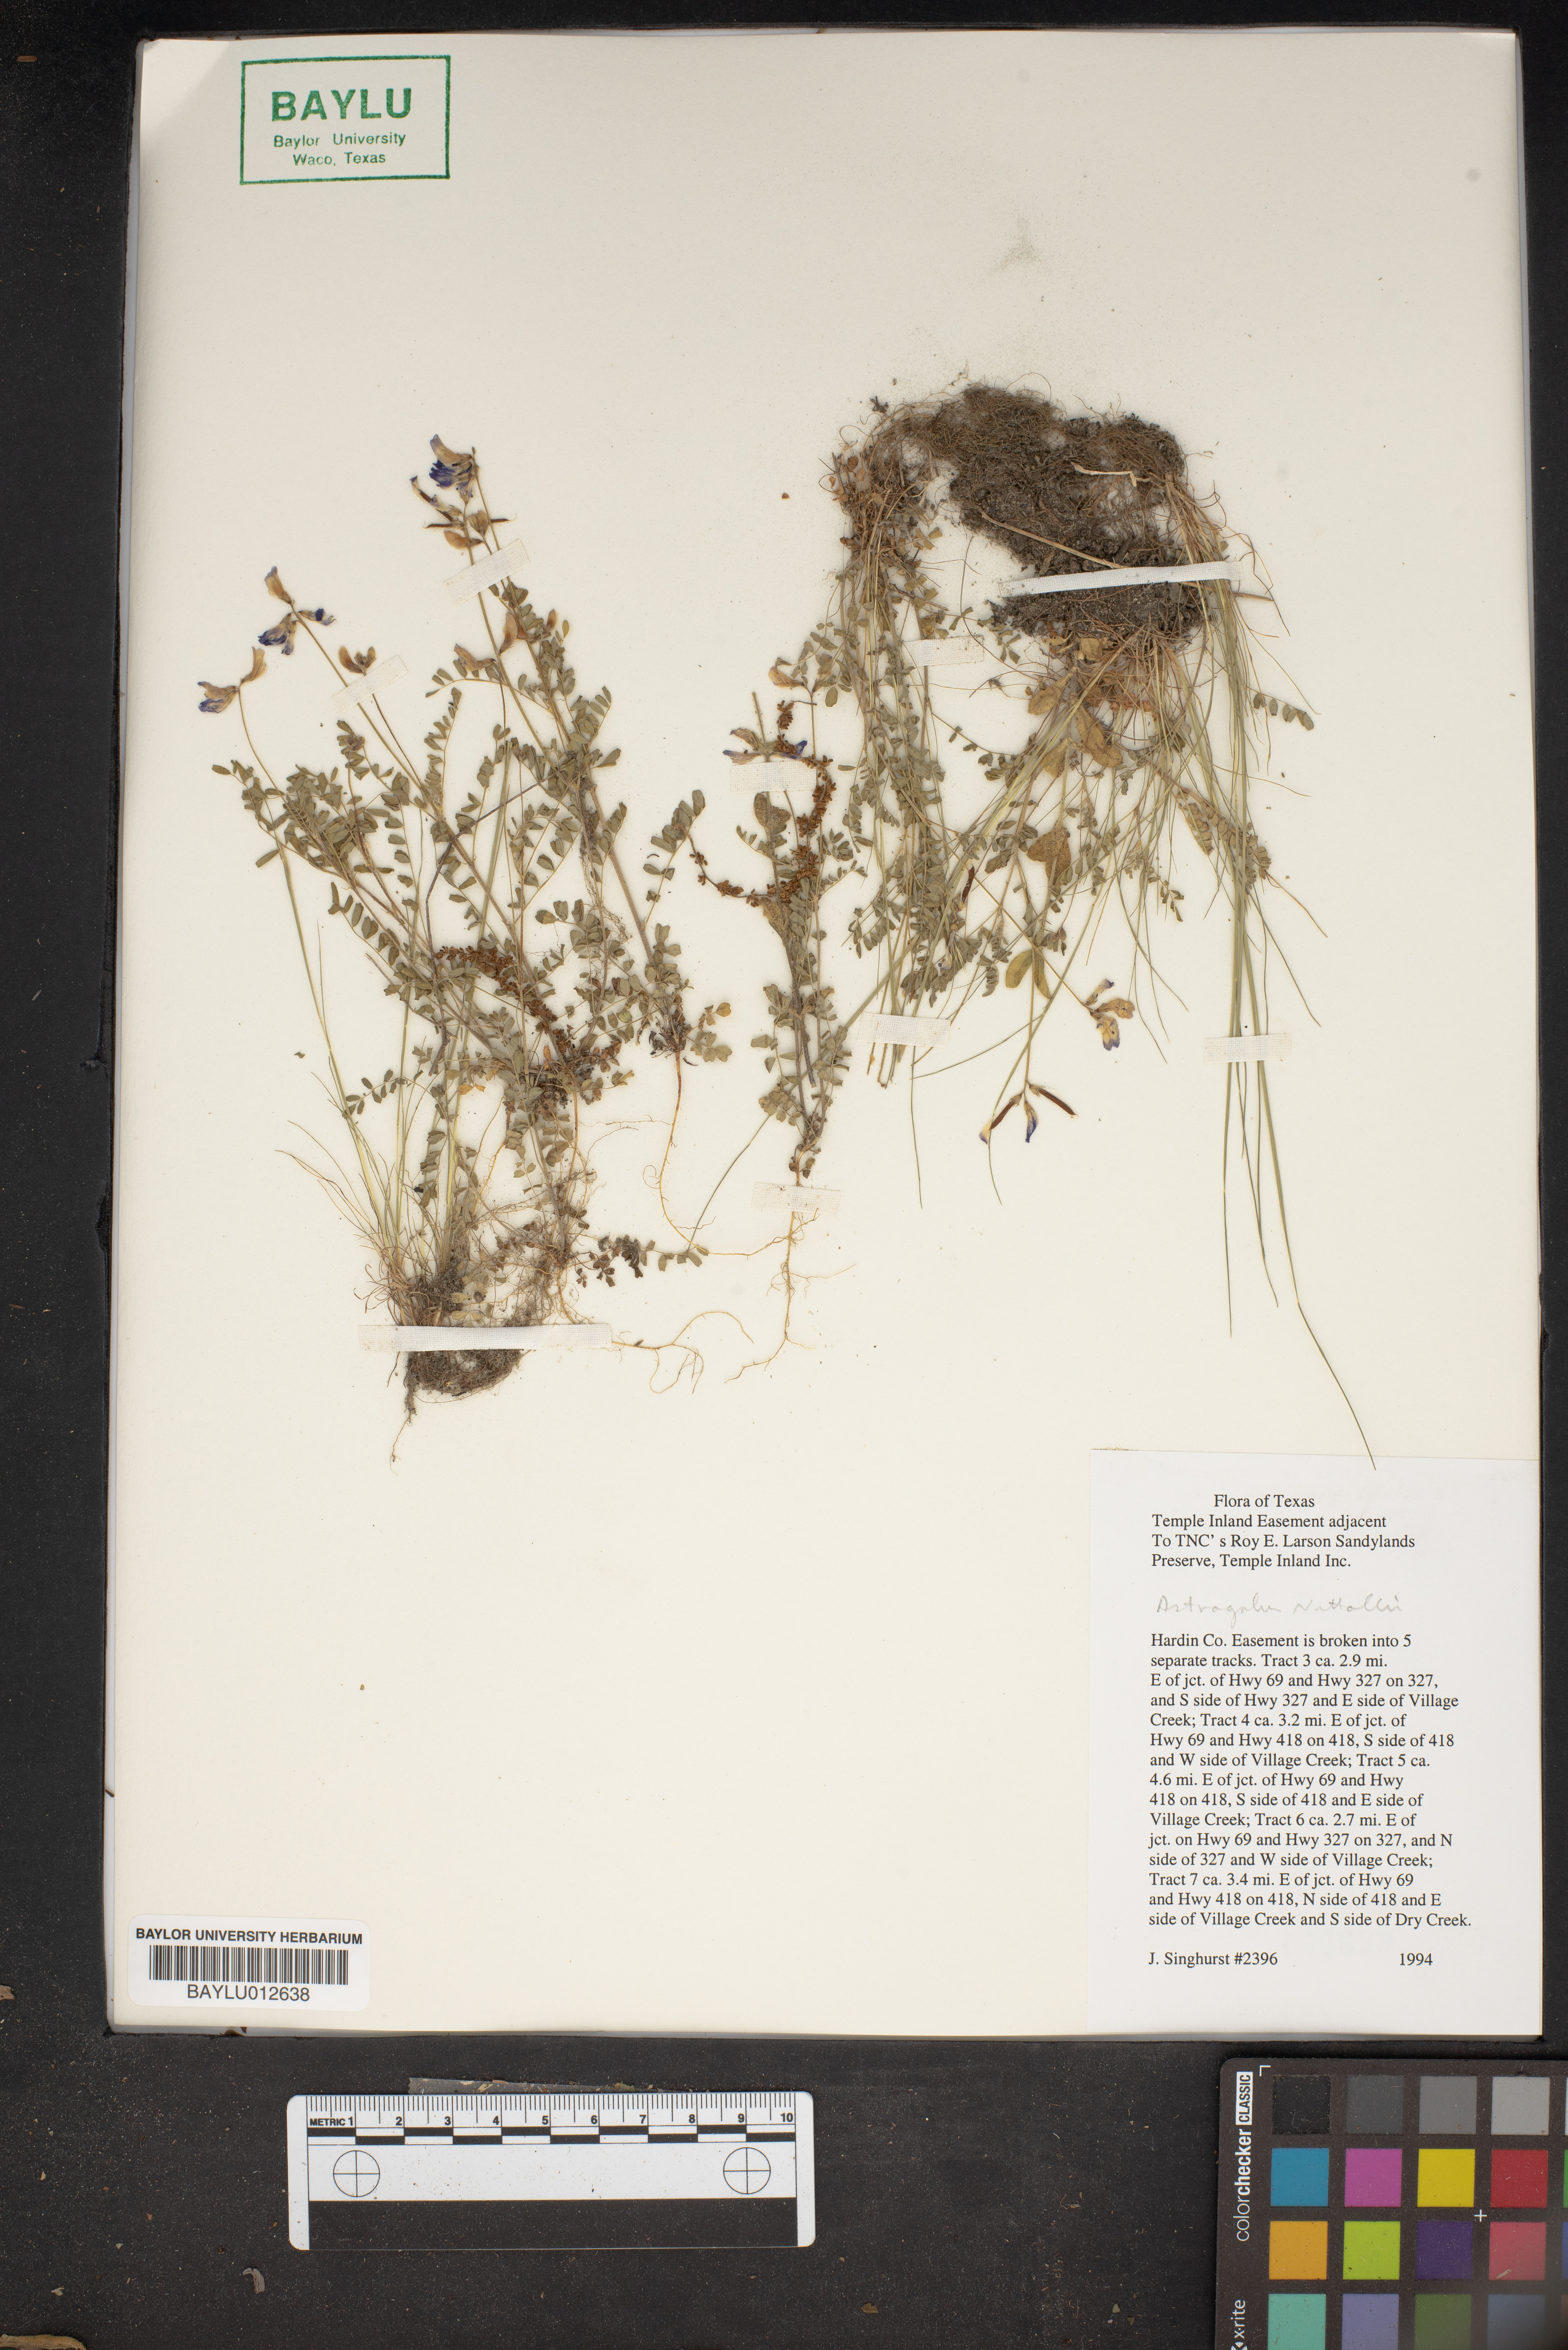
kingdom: Plantae
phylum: Tracheophyta
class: Magnoliopsida
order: Fabales
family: Fabaceae
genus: Astragalus
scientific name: Astragalus nuttallii
